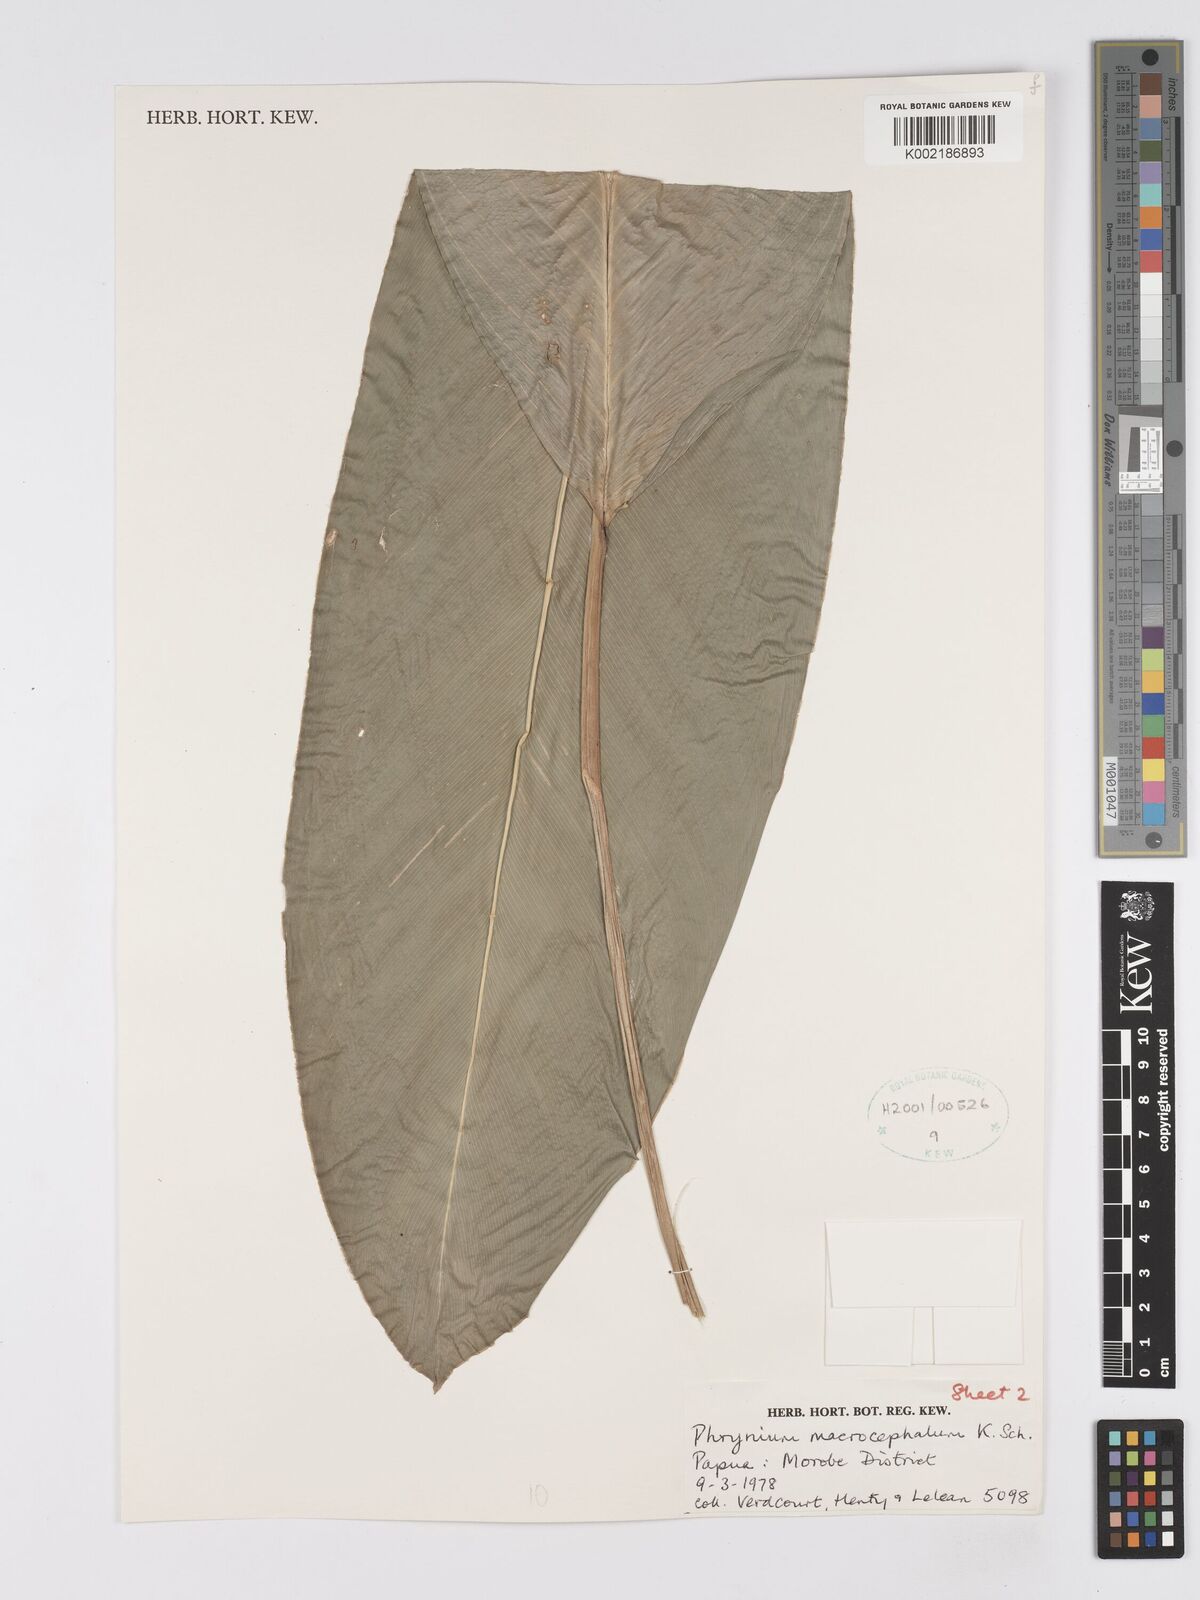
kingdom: Plantae
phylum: Tracheophyta
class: Liliopsida
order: Zingiberales
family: Marantaceae
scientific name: Marantaceae
